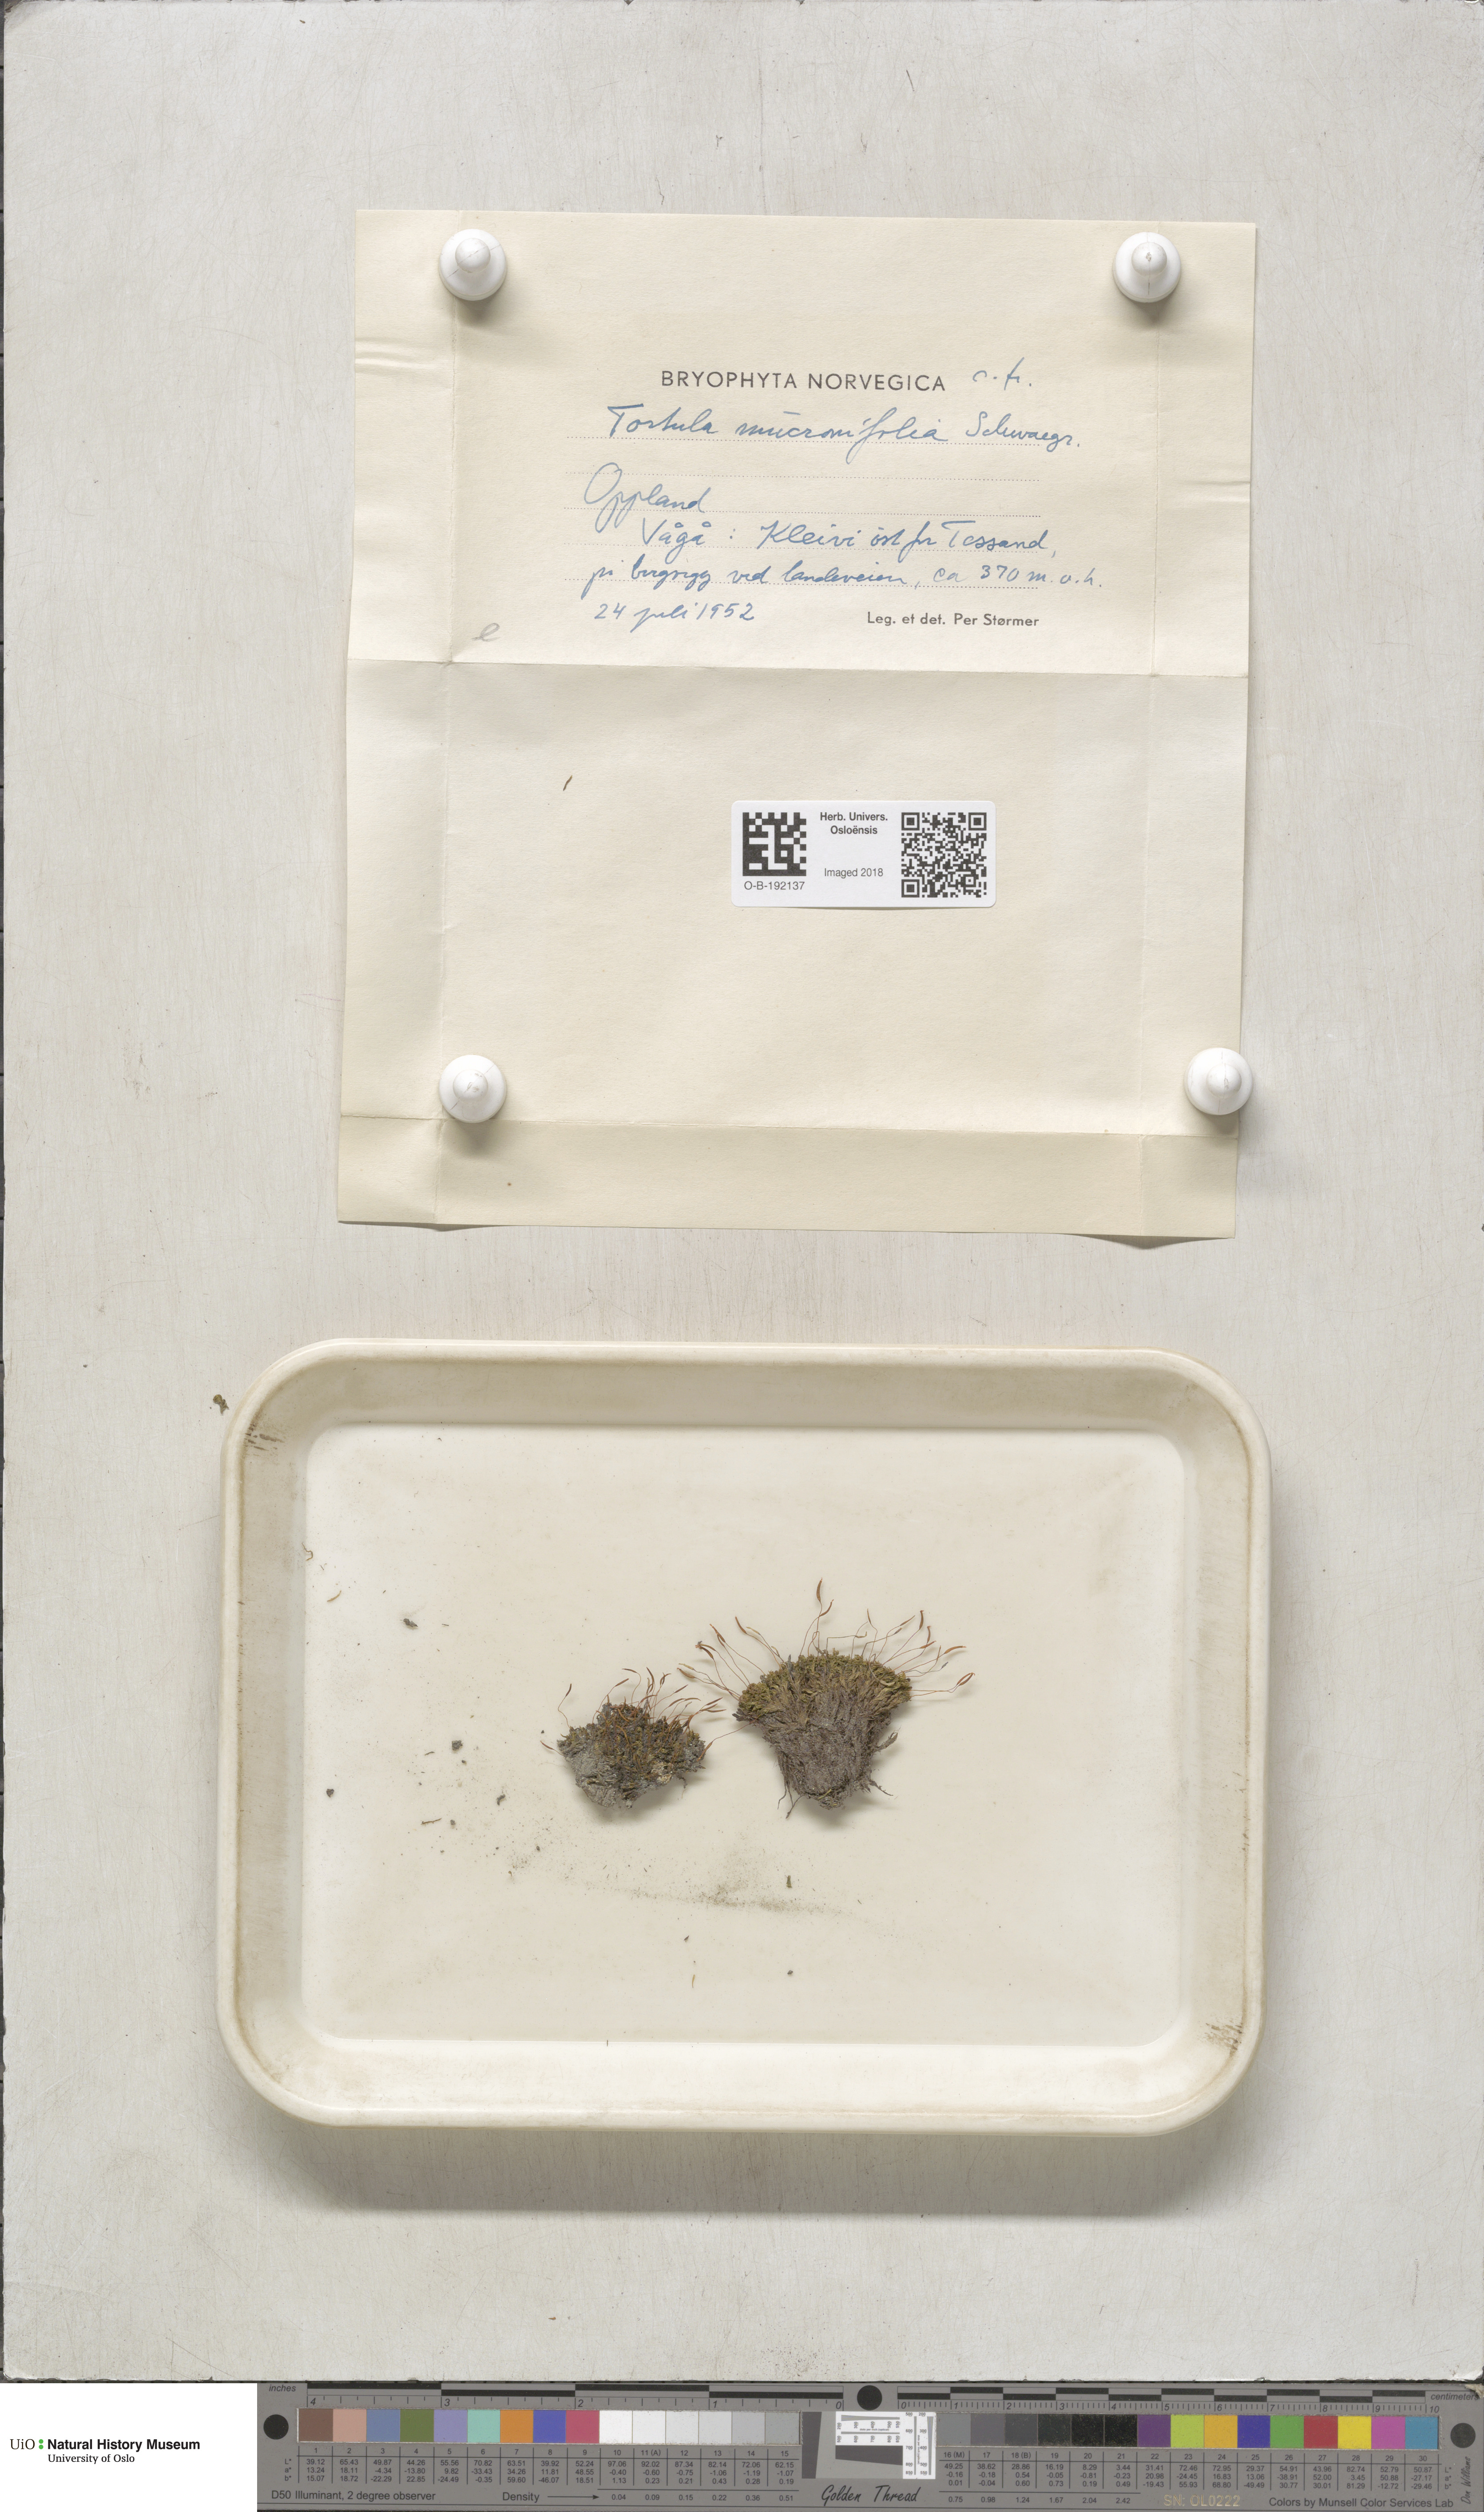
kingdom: Plantae
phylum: Bryophyta
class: Bryopsida
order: Pottiales
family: Pottiaceae
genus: Tortula
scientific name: Tortula mucronifolia
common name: Mucronate screw moss
